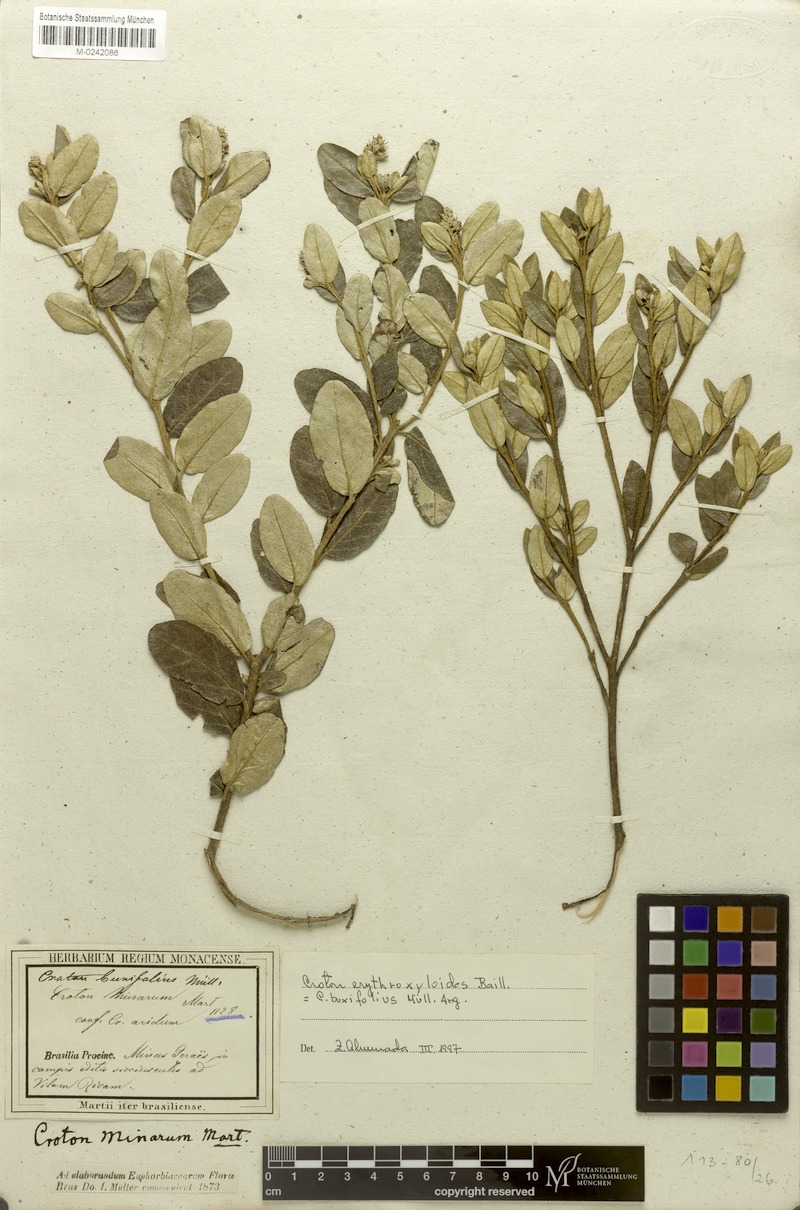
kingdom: Plantae
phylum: Tracheophyta
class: Magnoliopsida
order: Malpighiales
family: Euphorbiaceae
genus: Croton
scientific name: Croton erythroxyloides
